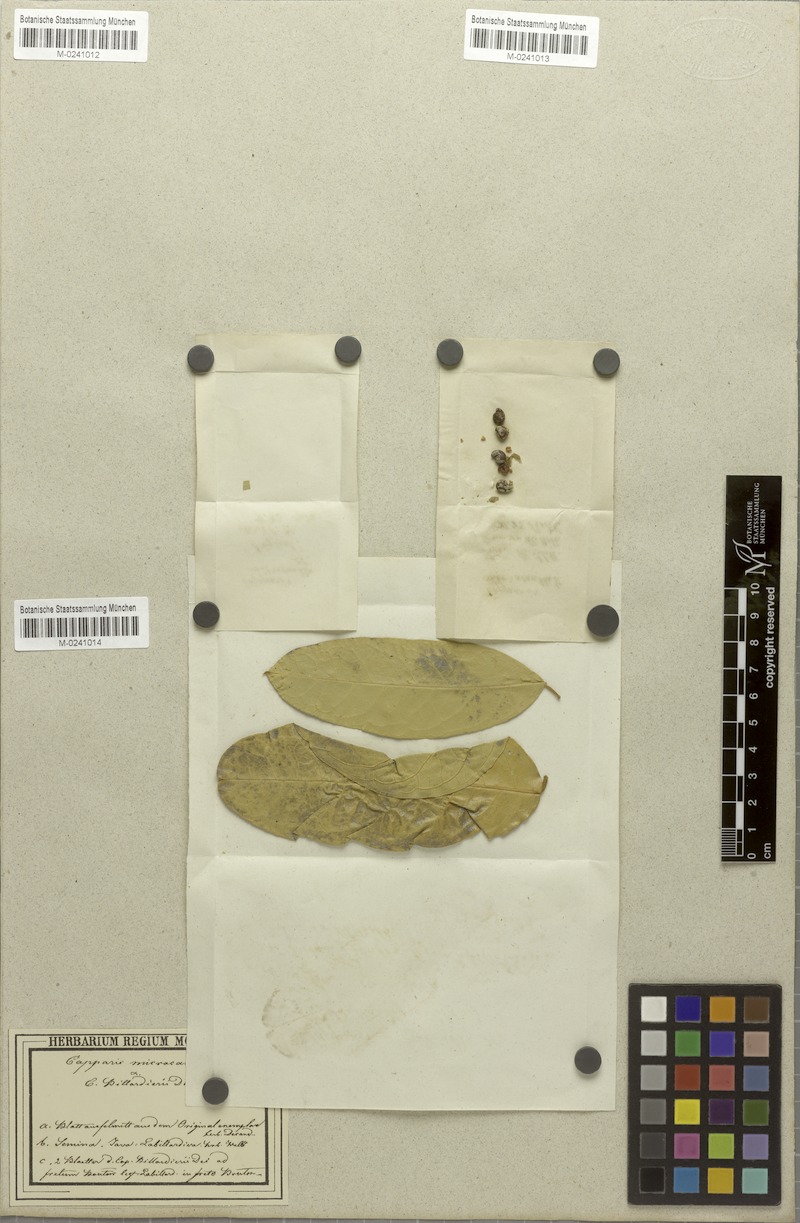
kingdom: Plantae
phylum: Tracheophyta
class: Magnoliopsida
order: Brassicales
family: Capparaceae
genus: Capparis
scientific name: Capparis micracantha
